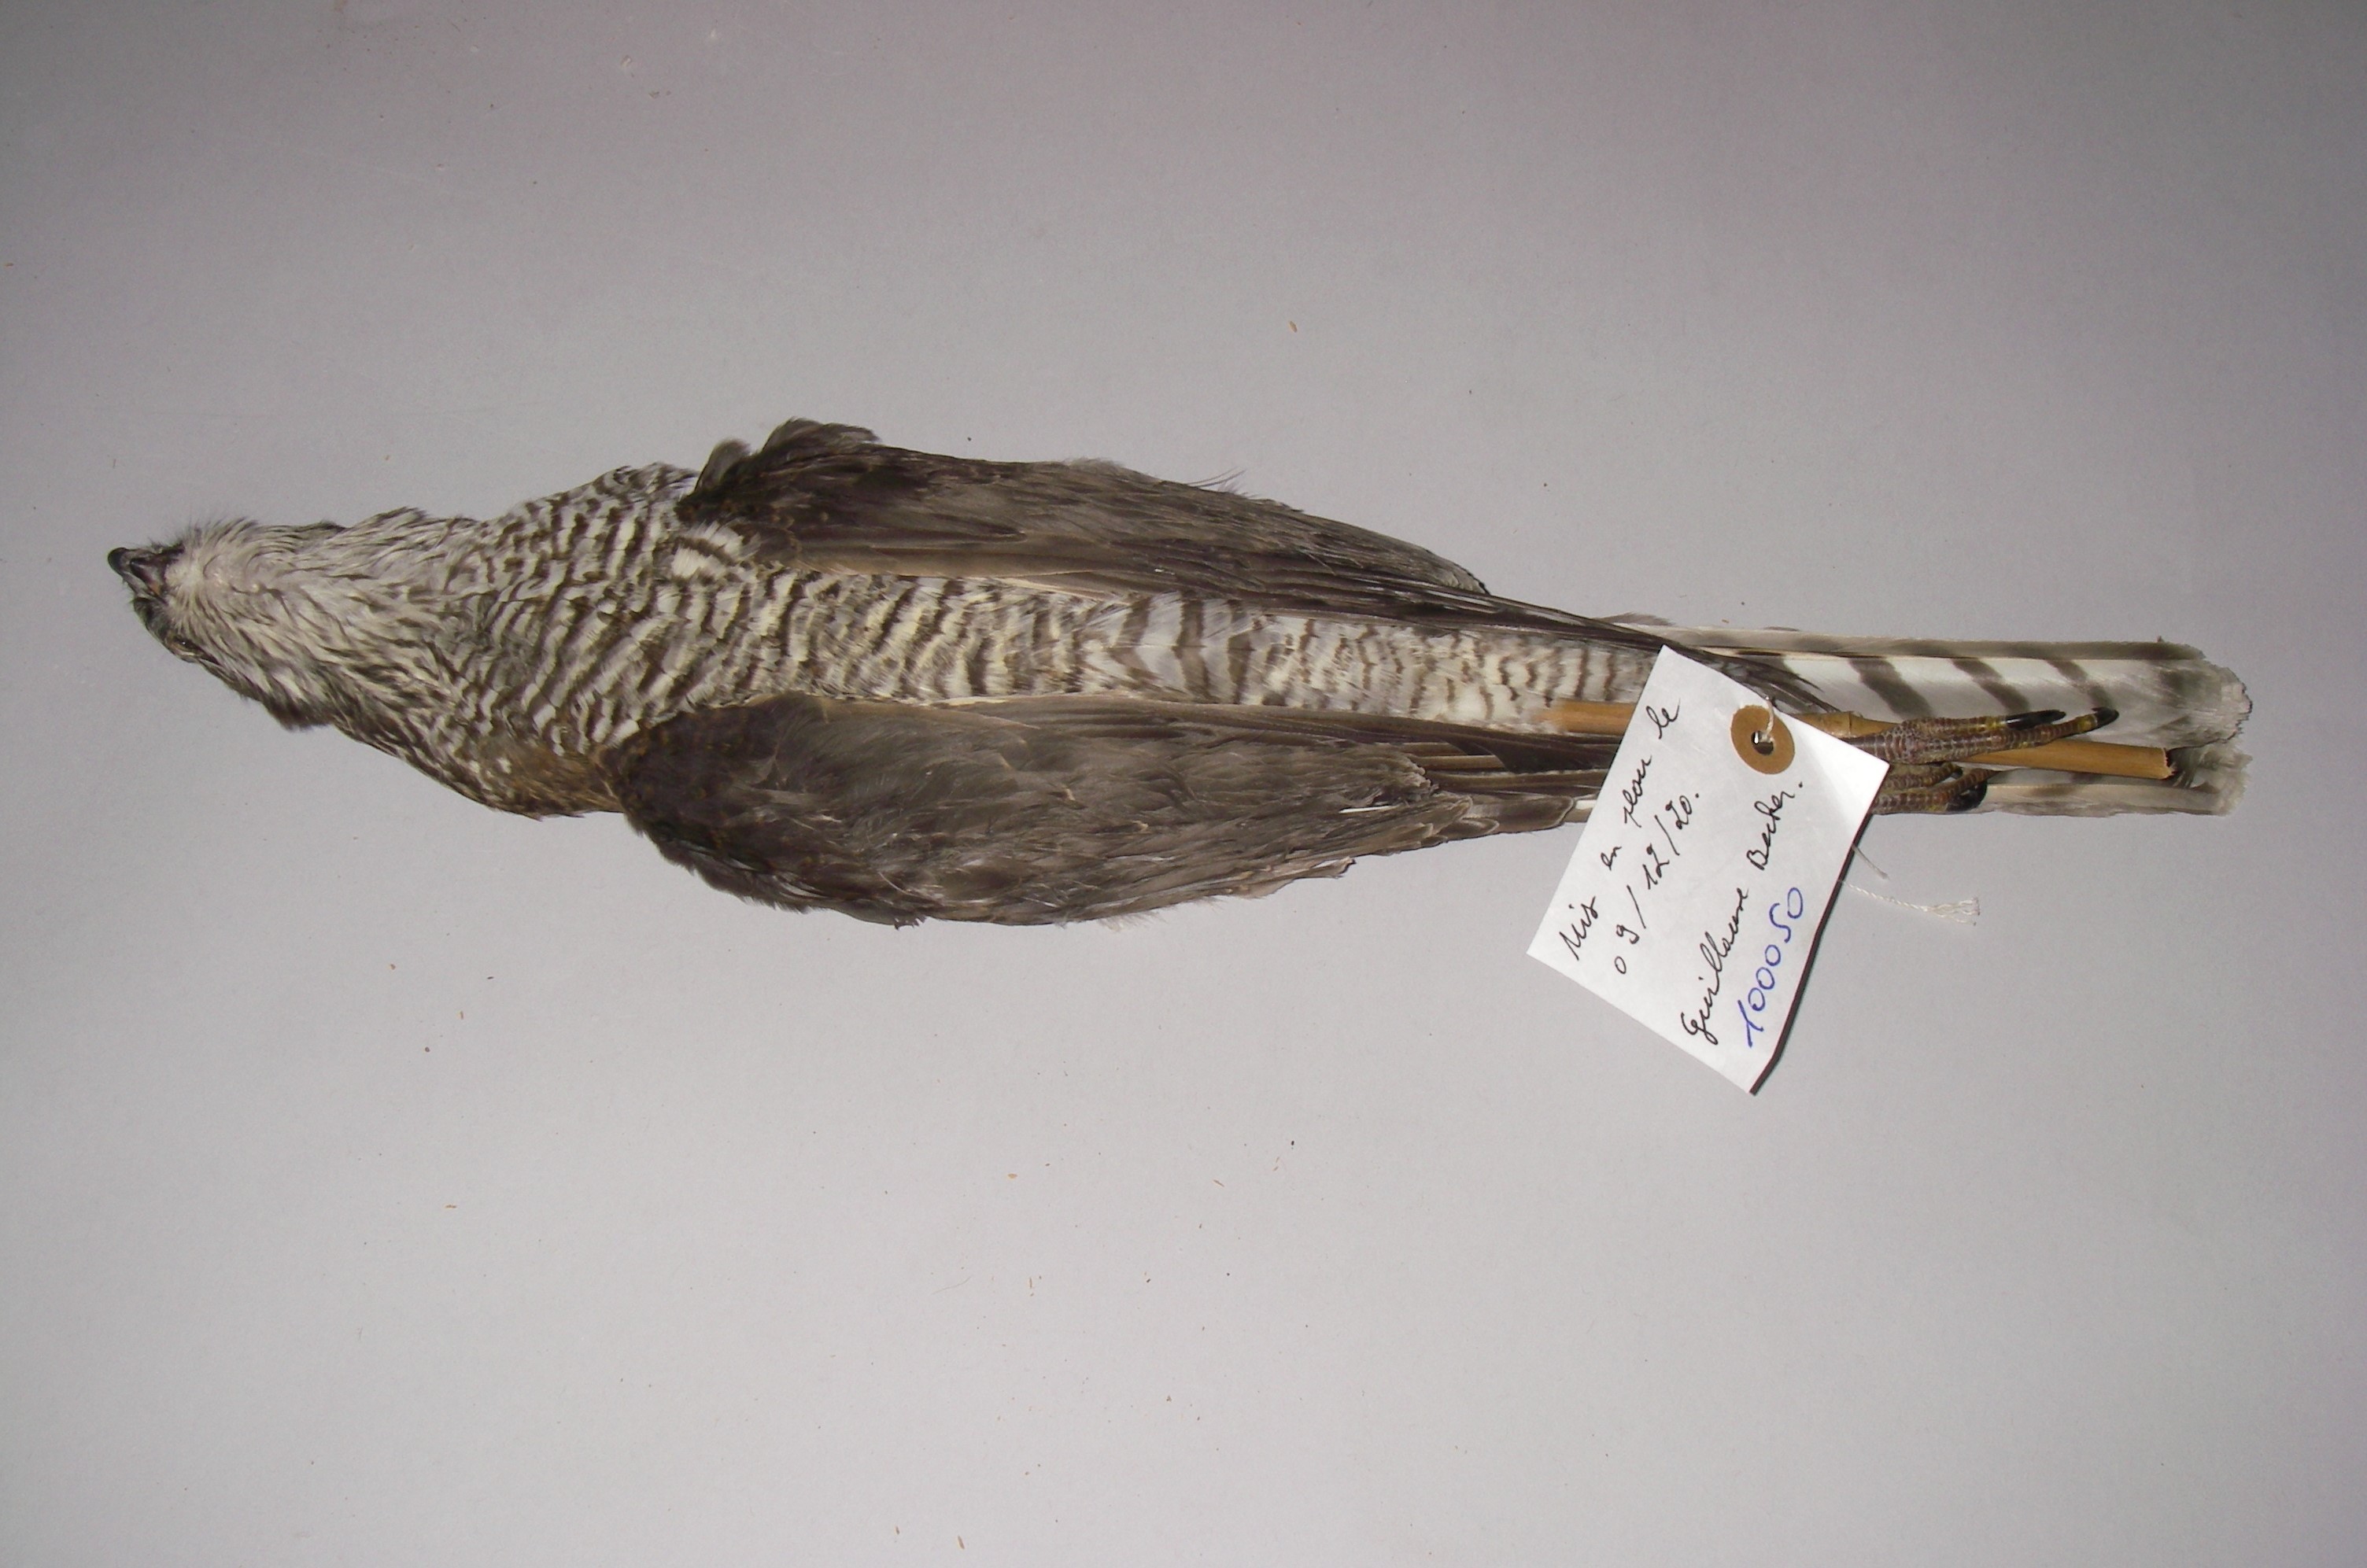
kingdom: Animalia
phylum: Chordata
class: Aves
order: Accipitriformes
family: Accipitridae
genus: Accipiter
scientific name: Accipiter nisus
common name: Eurasian sparrowhawk
